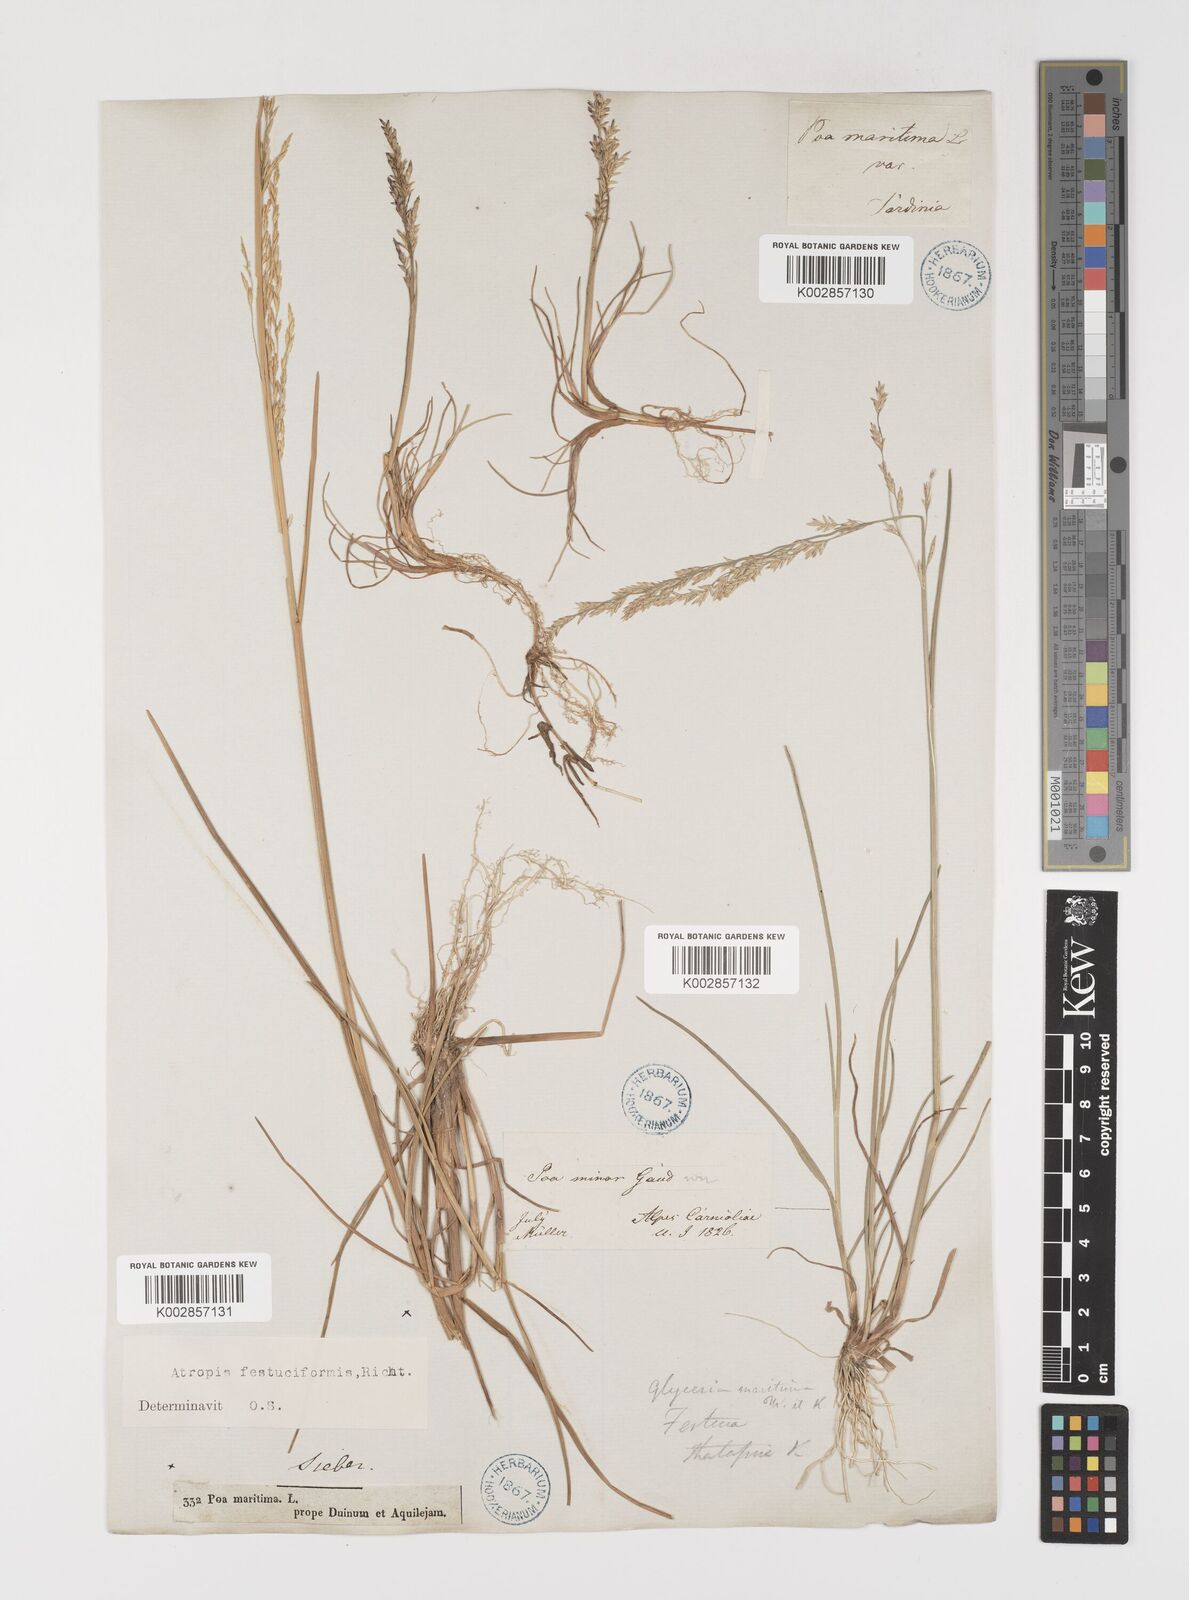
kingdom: Plantae
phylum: Tracheophyta
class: Liliopsida
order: Poales
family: Poaceae
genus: Puccinellia
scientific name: Puccinellia festuciformis
